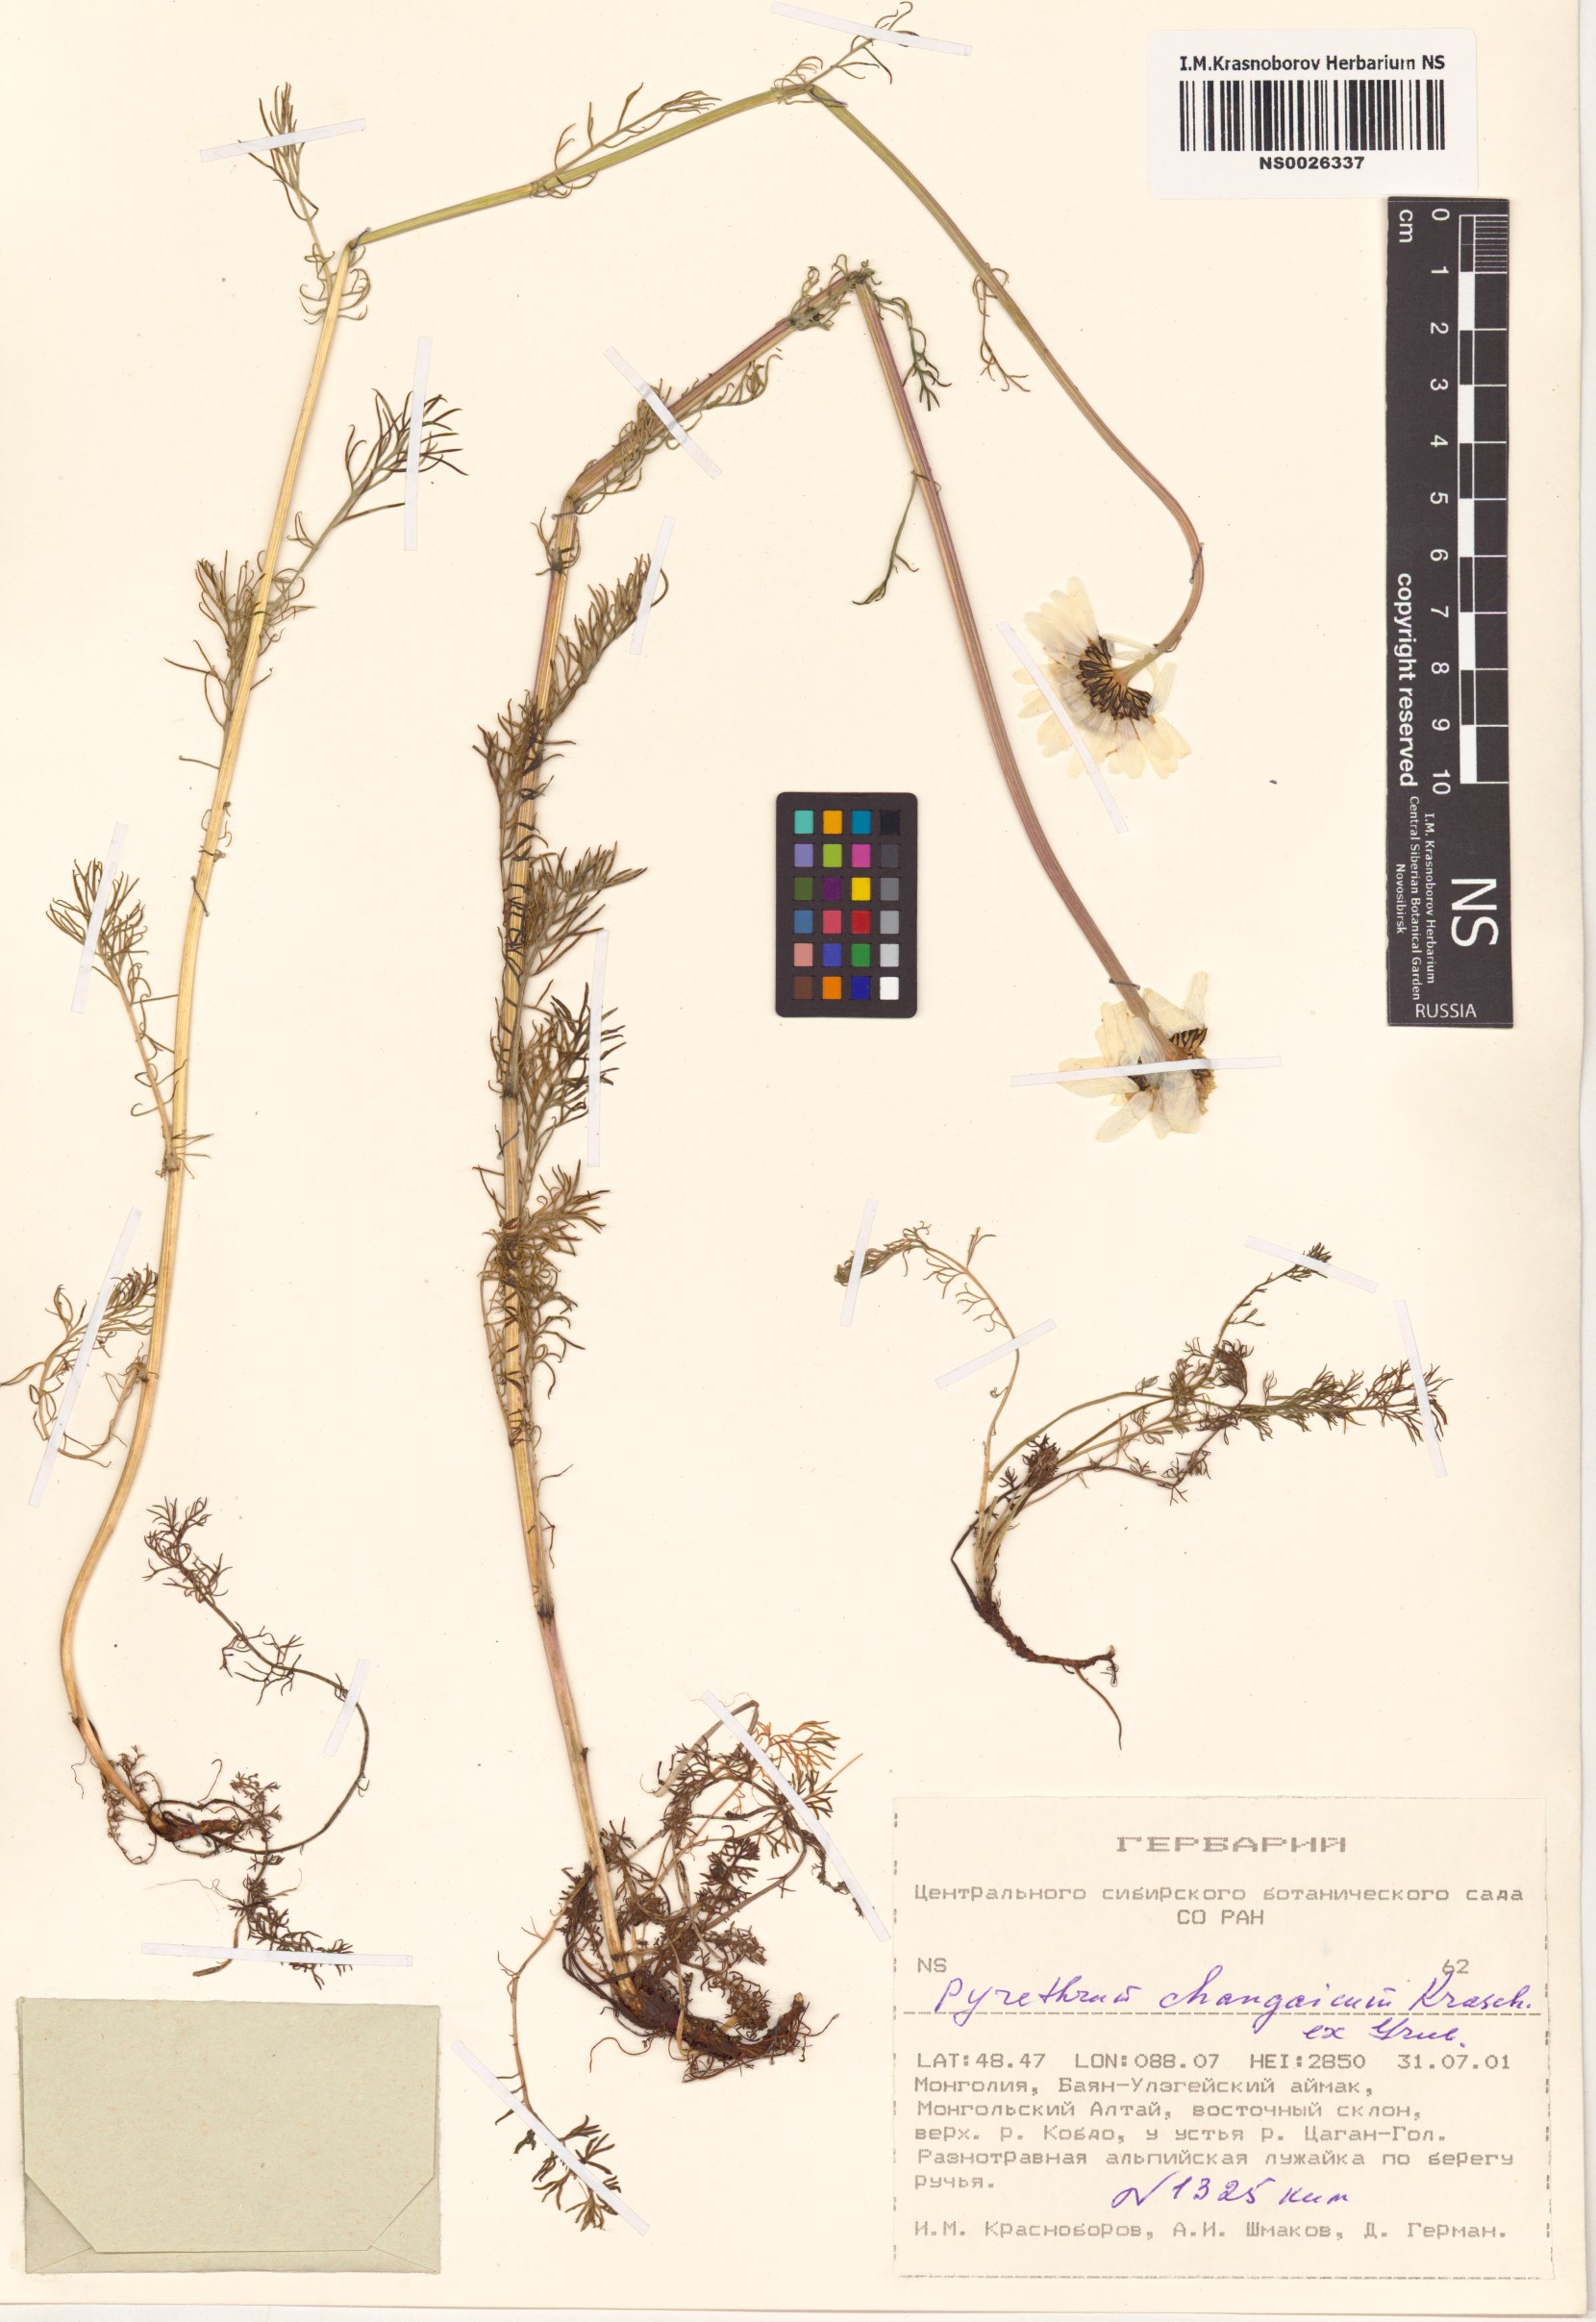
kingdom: Plantae
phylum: Tracheophyta
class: Magnoliopsida
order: Asterales
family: Asteraceae
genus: Tanacetum
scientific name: Tanacetum changaicum
